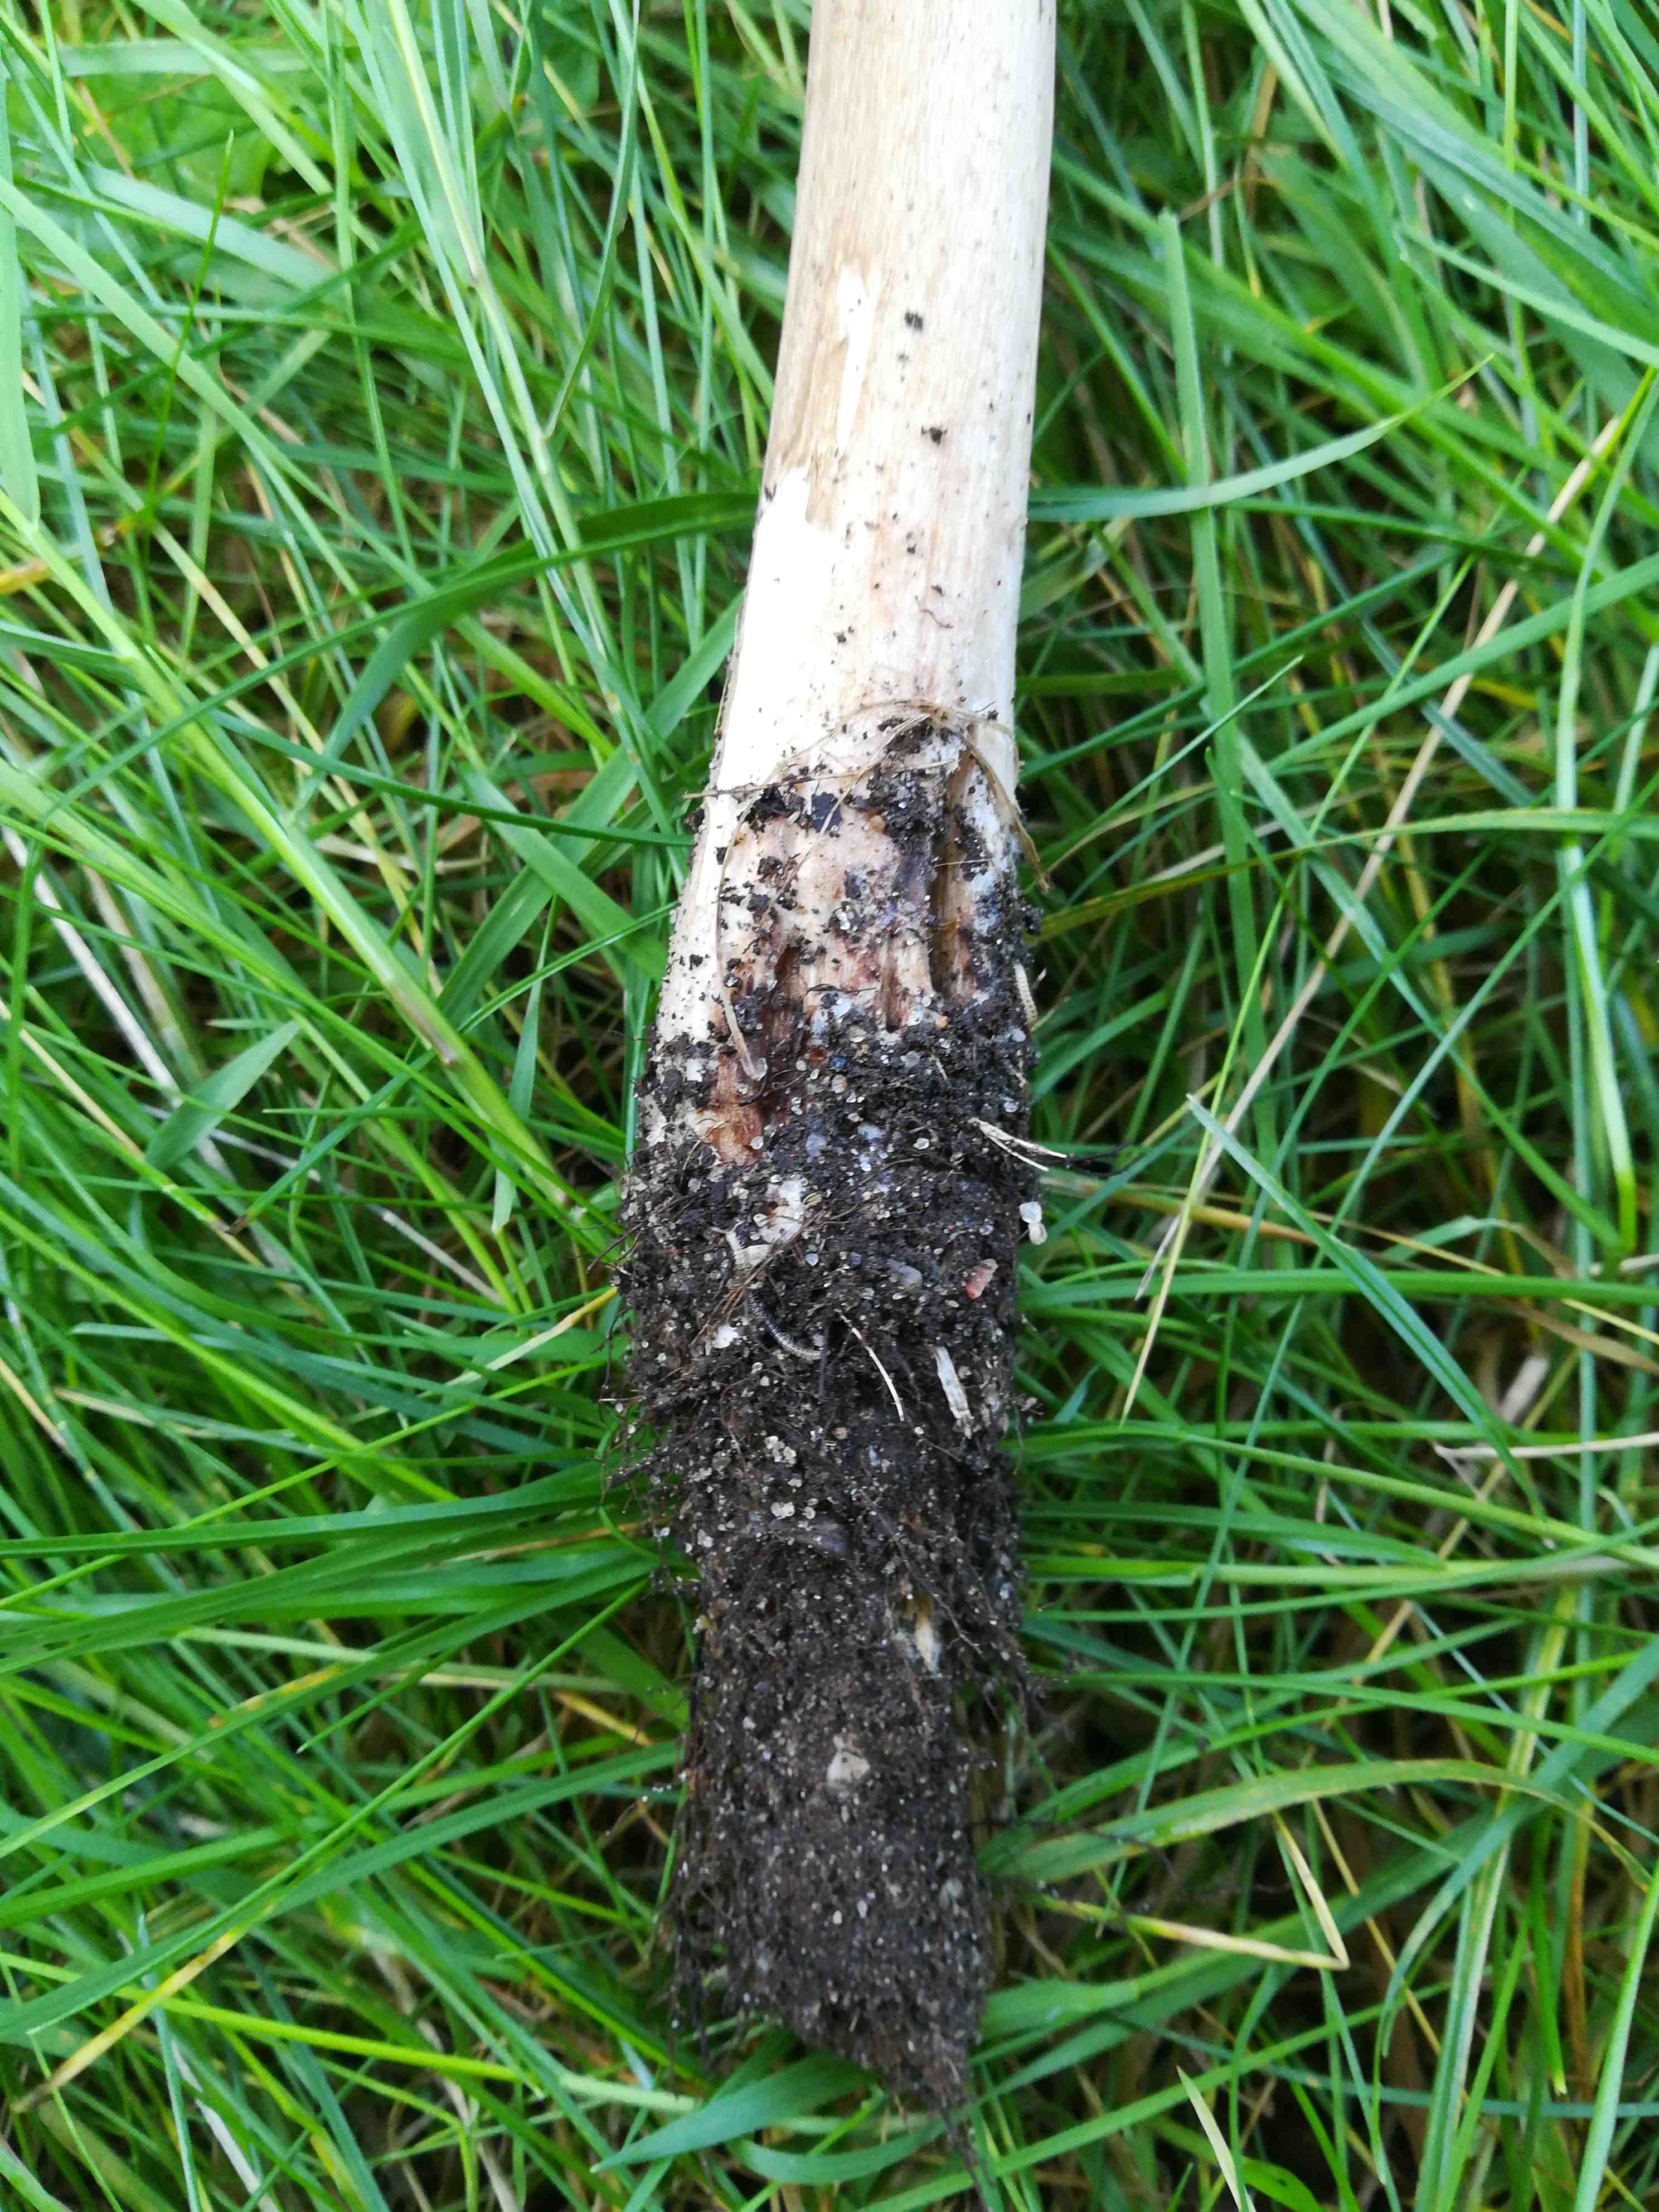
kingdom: Fungi
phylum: Basidiomycota
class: Agaricomycetes
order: Agaricales
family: Physalacriaceae
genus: Hymenopellis
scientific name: Hymenopellis radicata
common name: almindelig pælerodshat
